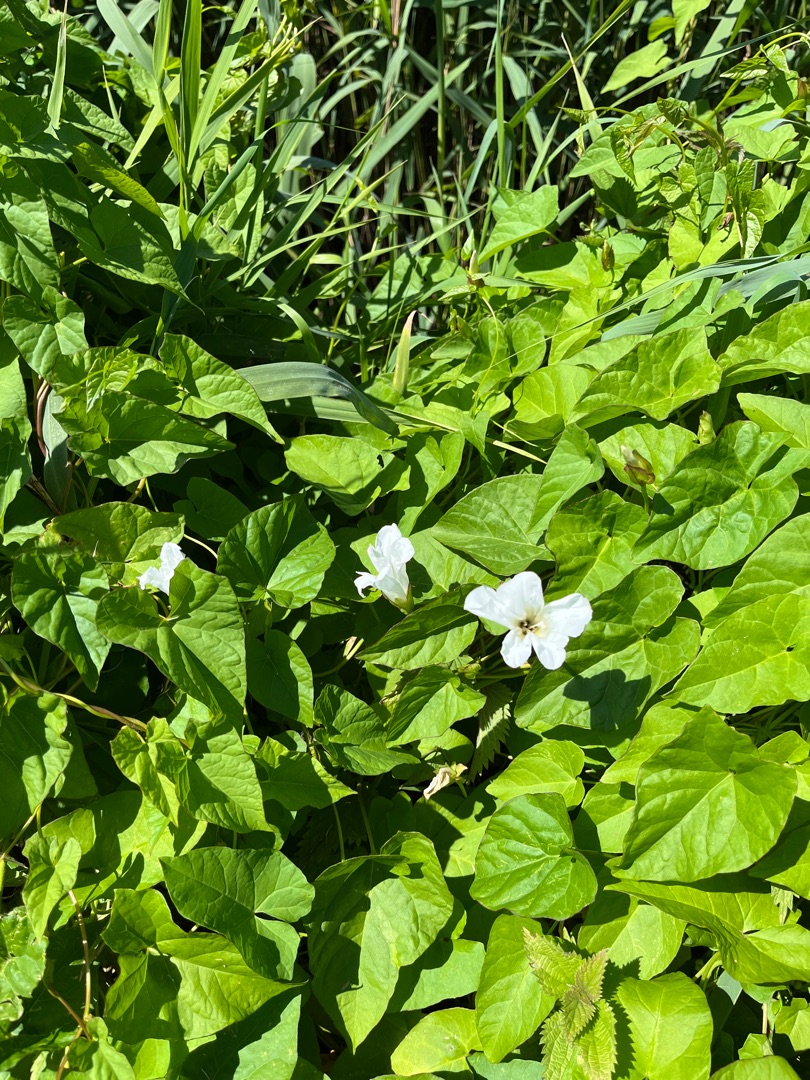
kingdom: Plantae
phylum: Tracheophyta
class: Magnoliopsida
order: Solanales
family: Convolvulaceae
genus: Calystegia
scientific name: Calystegia sepium
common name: Gærde-snerle
